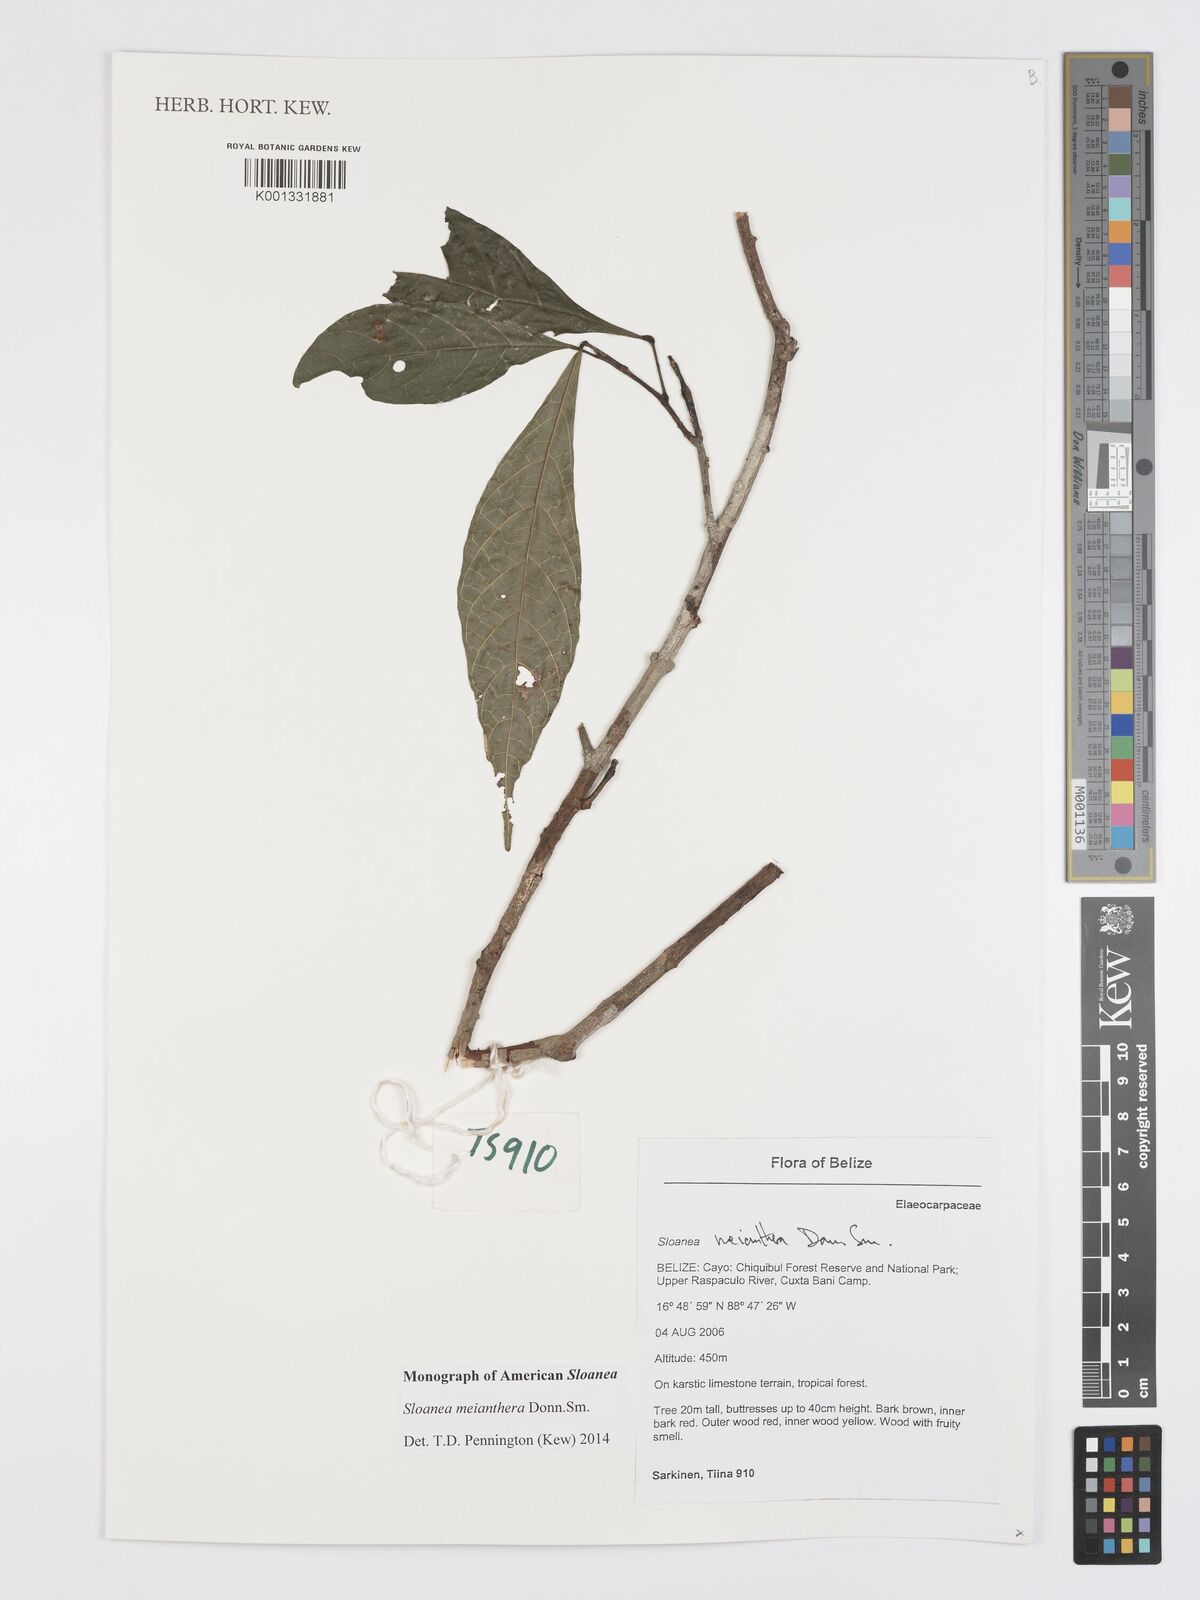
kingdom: Plantae
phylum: Tracheophyta
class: Magnoliopsida
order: Oxalidales
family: Elaeocarpaceae
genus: Sloanea
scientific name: Sloanea meianthera
